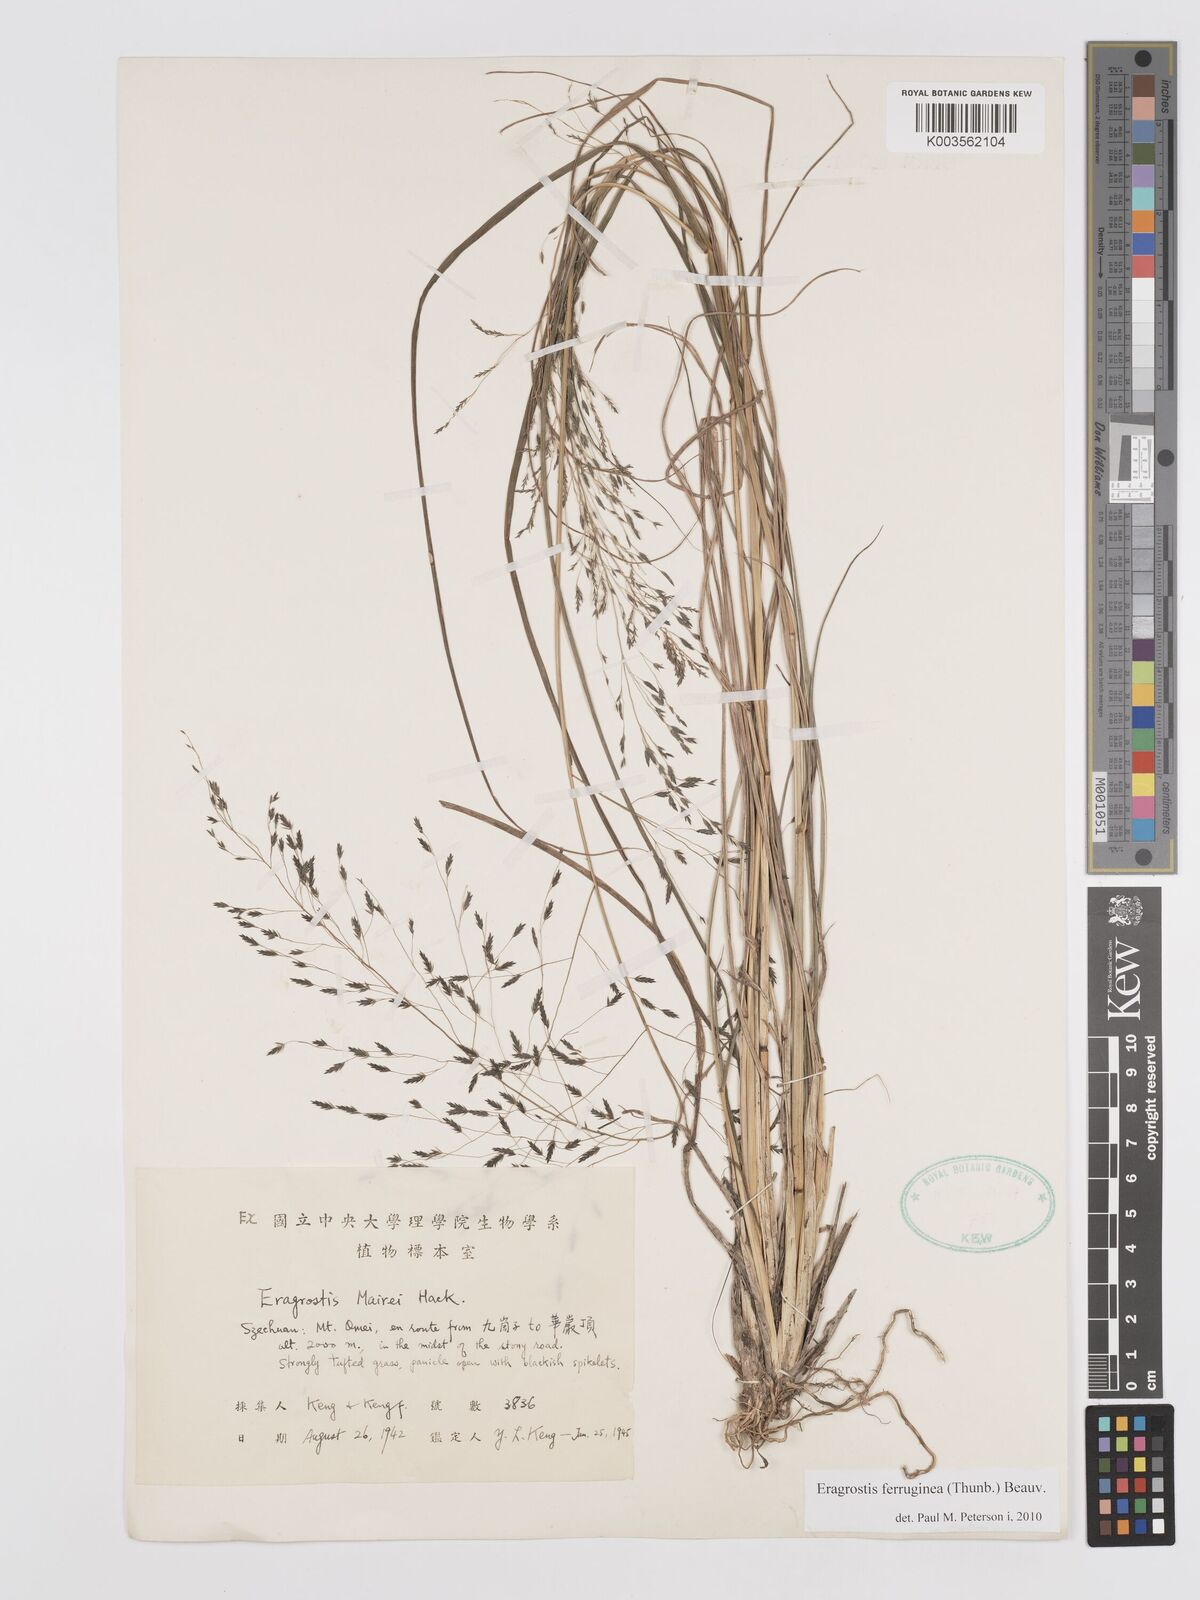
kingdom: Plantae
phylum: Tracheophyta
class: Liliopsida
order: Poales
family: Poaceae
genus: Eragrostis
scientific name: Eragrostis ferruginea
